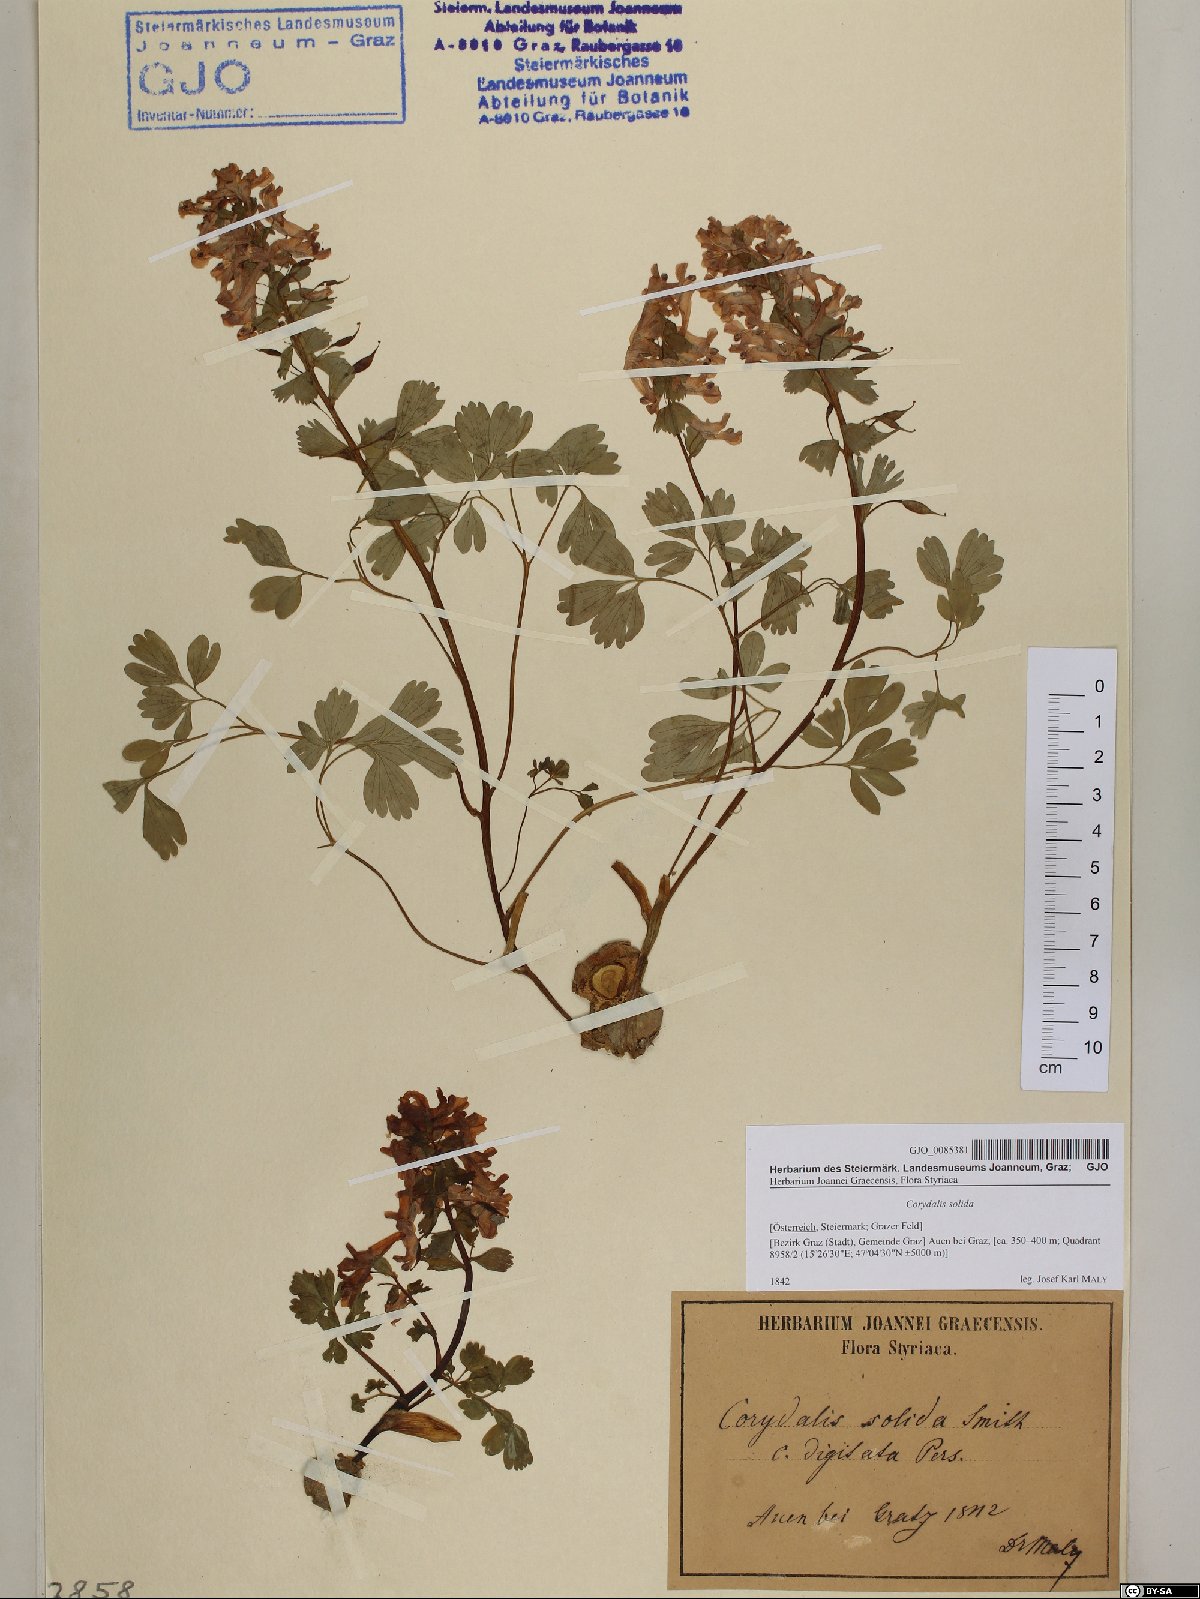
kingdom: Plantae
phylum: Tracheophyta
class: Magnoliopsida
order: Ranunculales
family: Papaveraceae
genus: Corydalis
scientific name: Corydalis solida
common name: Bird-in-a-bush
